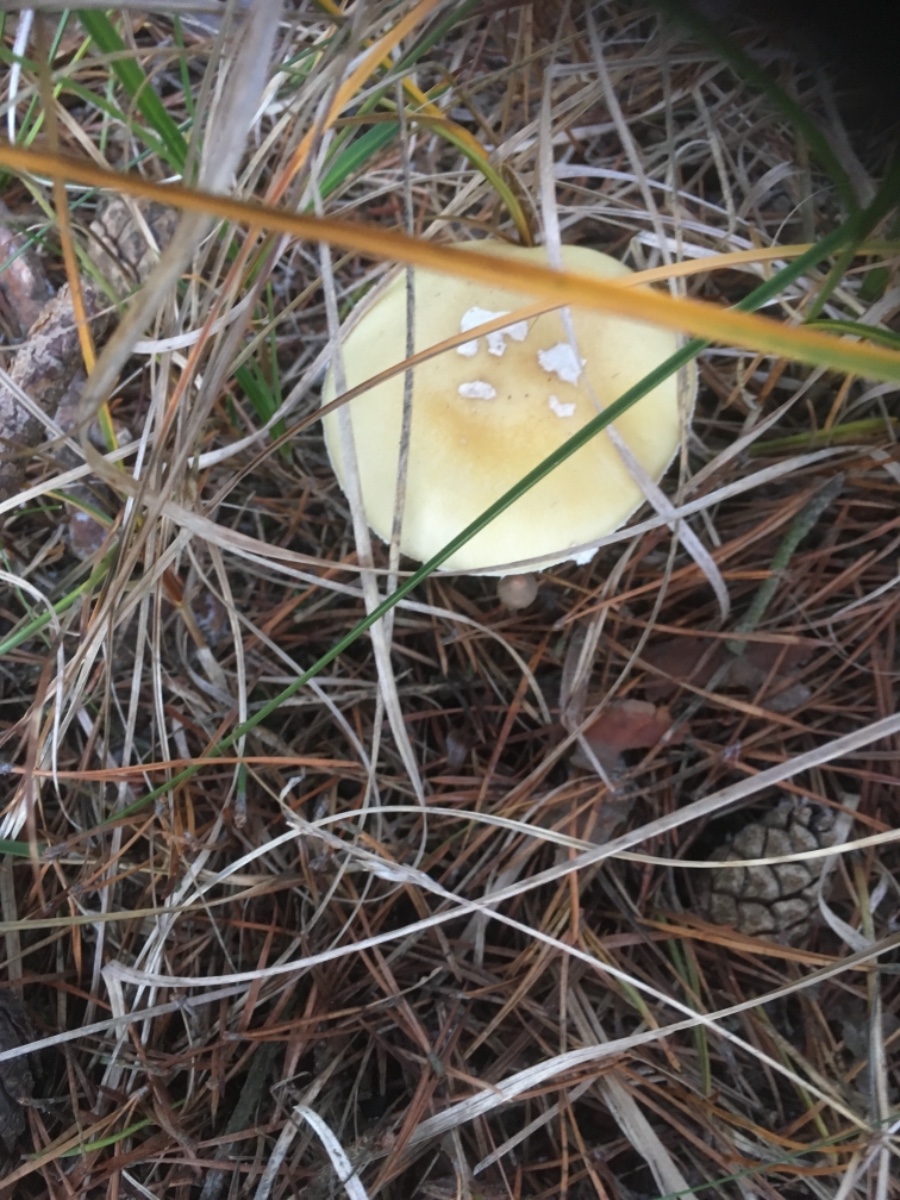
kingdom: Fungi
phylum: Basidiomycota
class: Agaricomycetes
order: Agaricales
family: Amanitaceae
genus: Amanita
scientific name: Amanita gemmata
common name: okkergul fluesvamp
